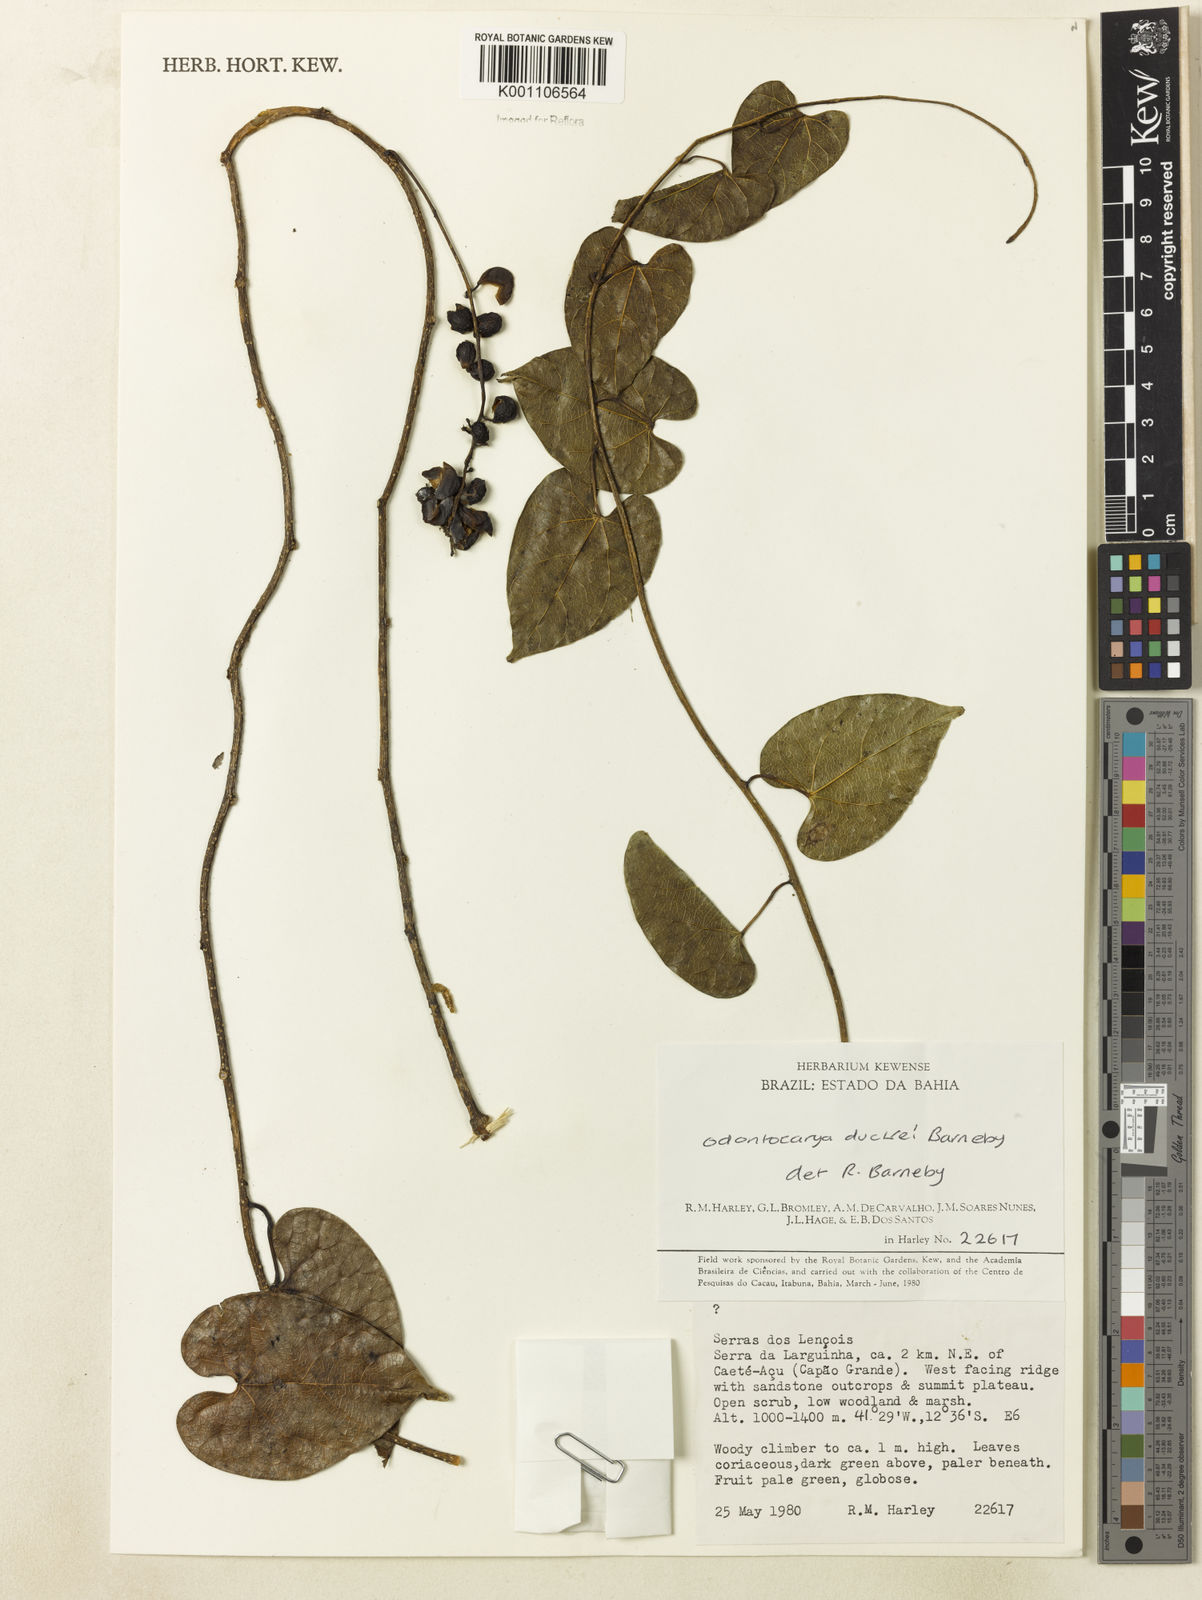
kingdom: Plantae
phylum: Tracheophyta
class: Magnoliopsida
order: Ranunculales
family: Menispermaceae
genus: Odontocarya
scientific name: Odontocarya duckei
